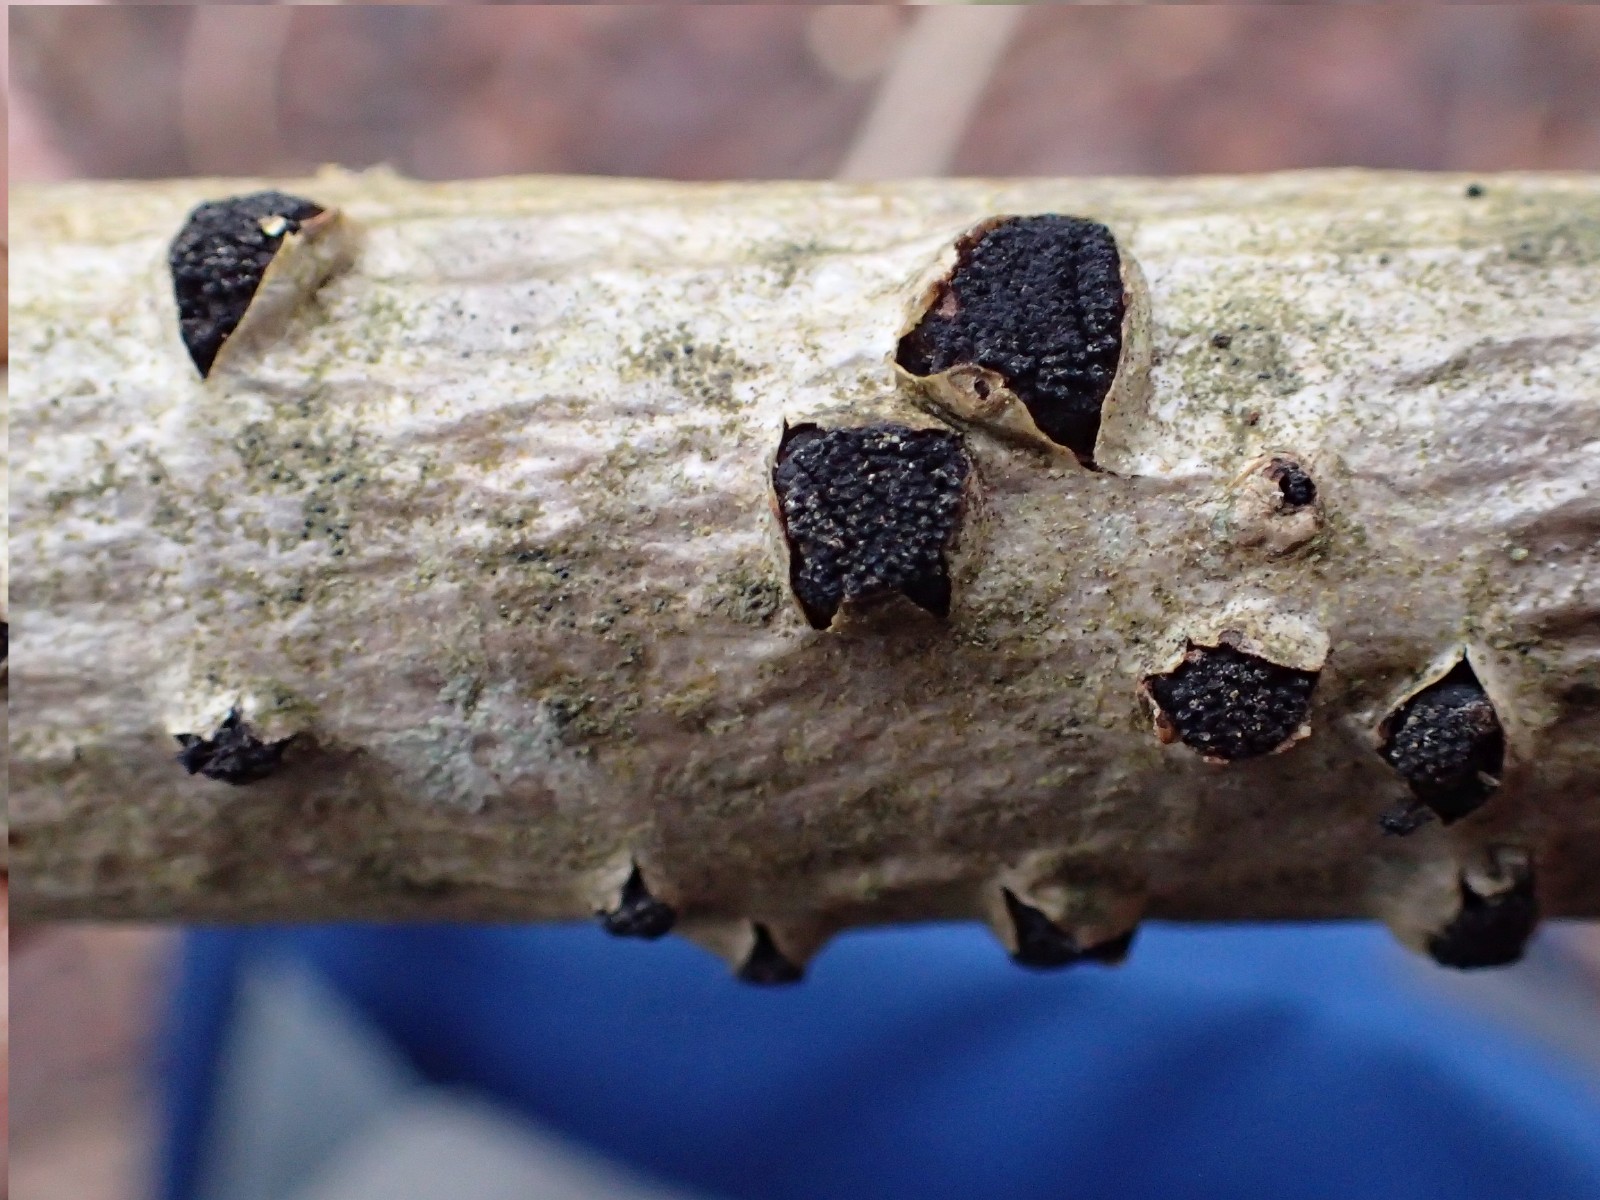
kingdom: Fungi
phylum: Ascomycota
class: Sordariomycetes
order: Xylariales
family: Diatrypaceae
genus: Diatrypella
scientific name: Diatrypella
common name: kulskorpe
